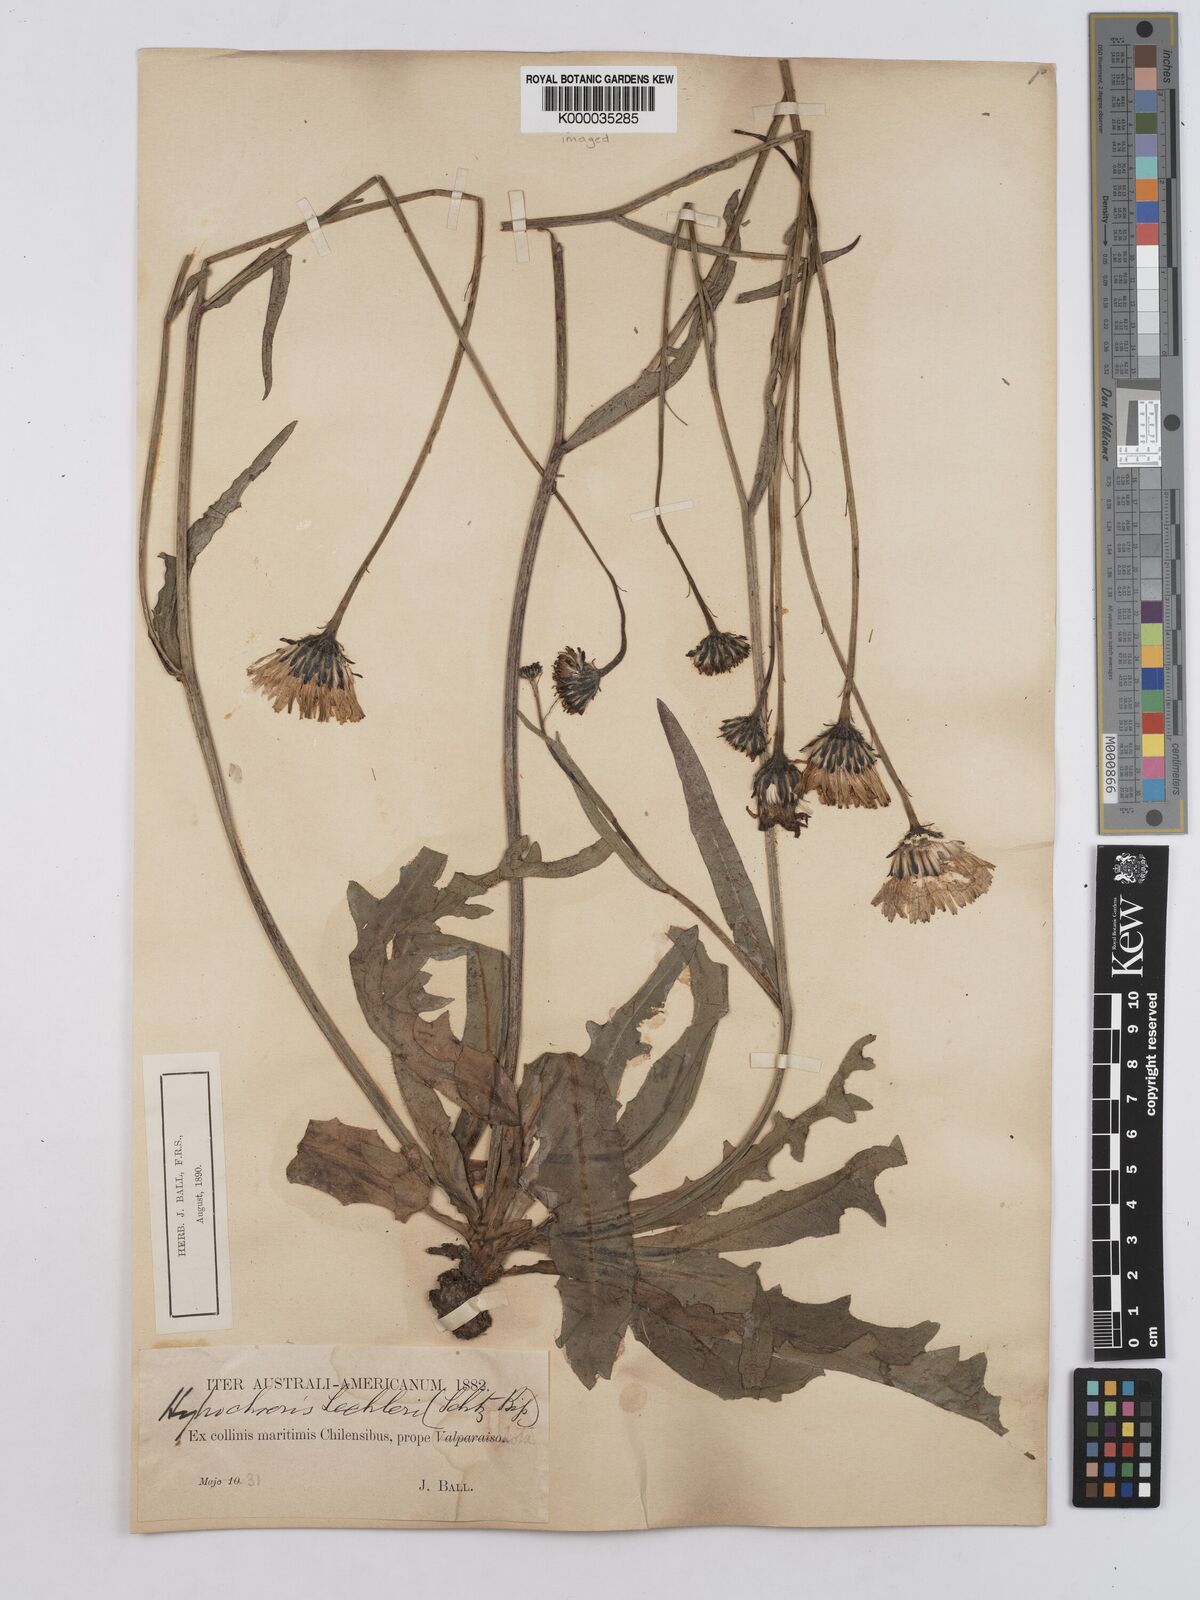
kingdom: Plantae
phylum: Tracheophyta
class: Magnoliopsida
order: Asterales
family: Asteraceae
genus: Hypochaeris
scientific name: Hypochaeris lechleri
